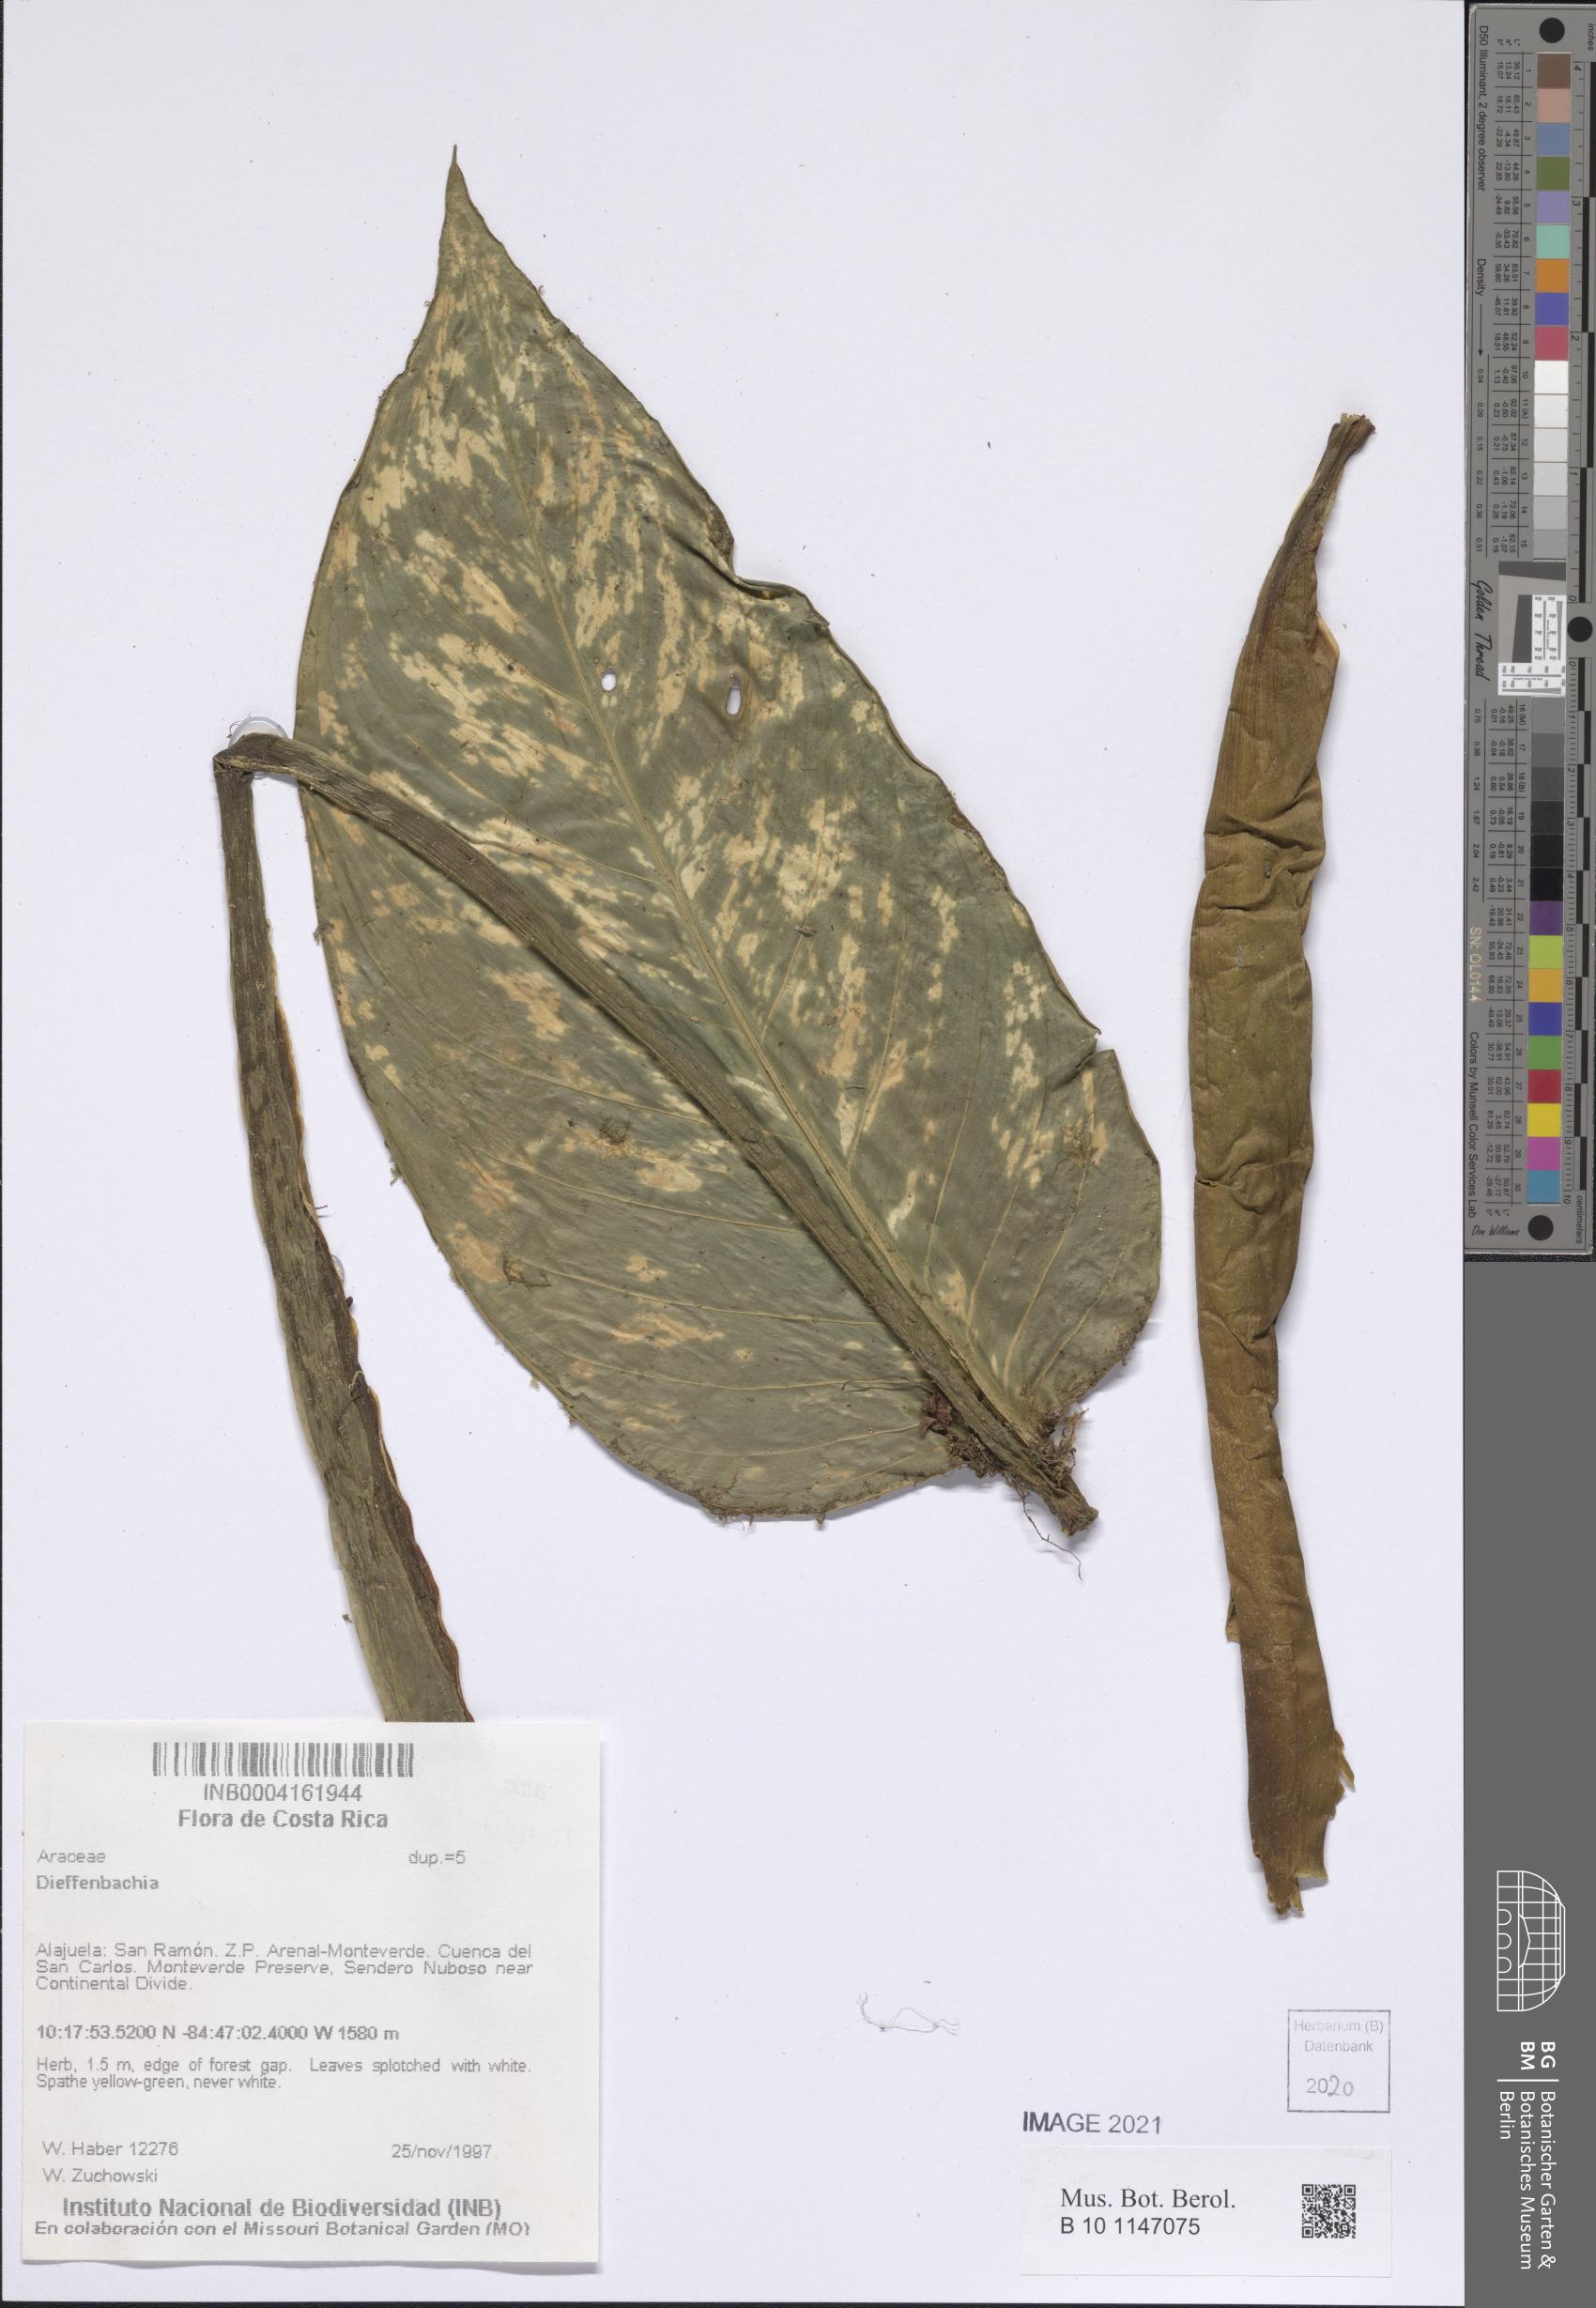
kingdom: Plantae
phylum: Tracheophyta
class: Liliopsida
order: Alismatales
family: Araceae
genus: Dieffenbachia
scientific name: Dieffenbachia
